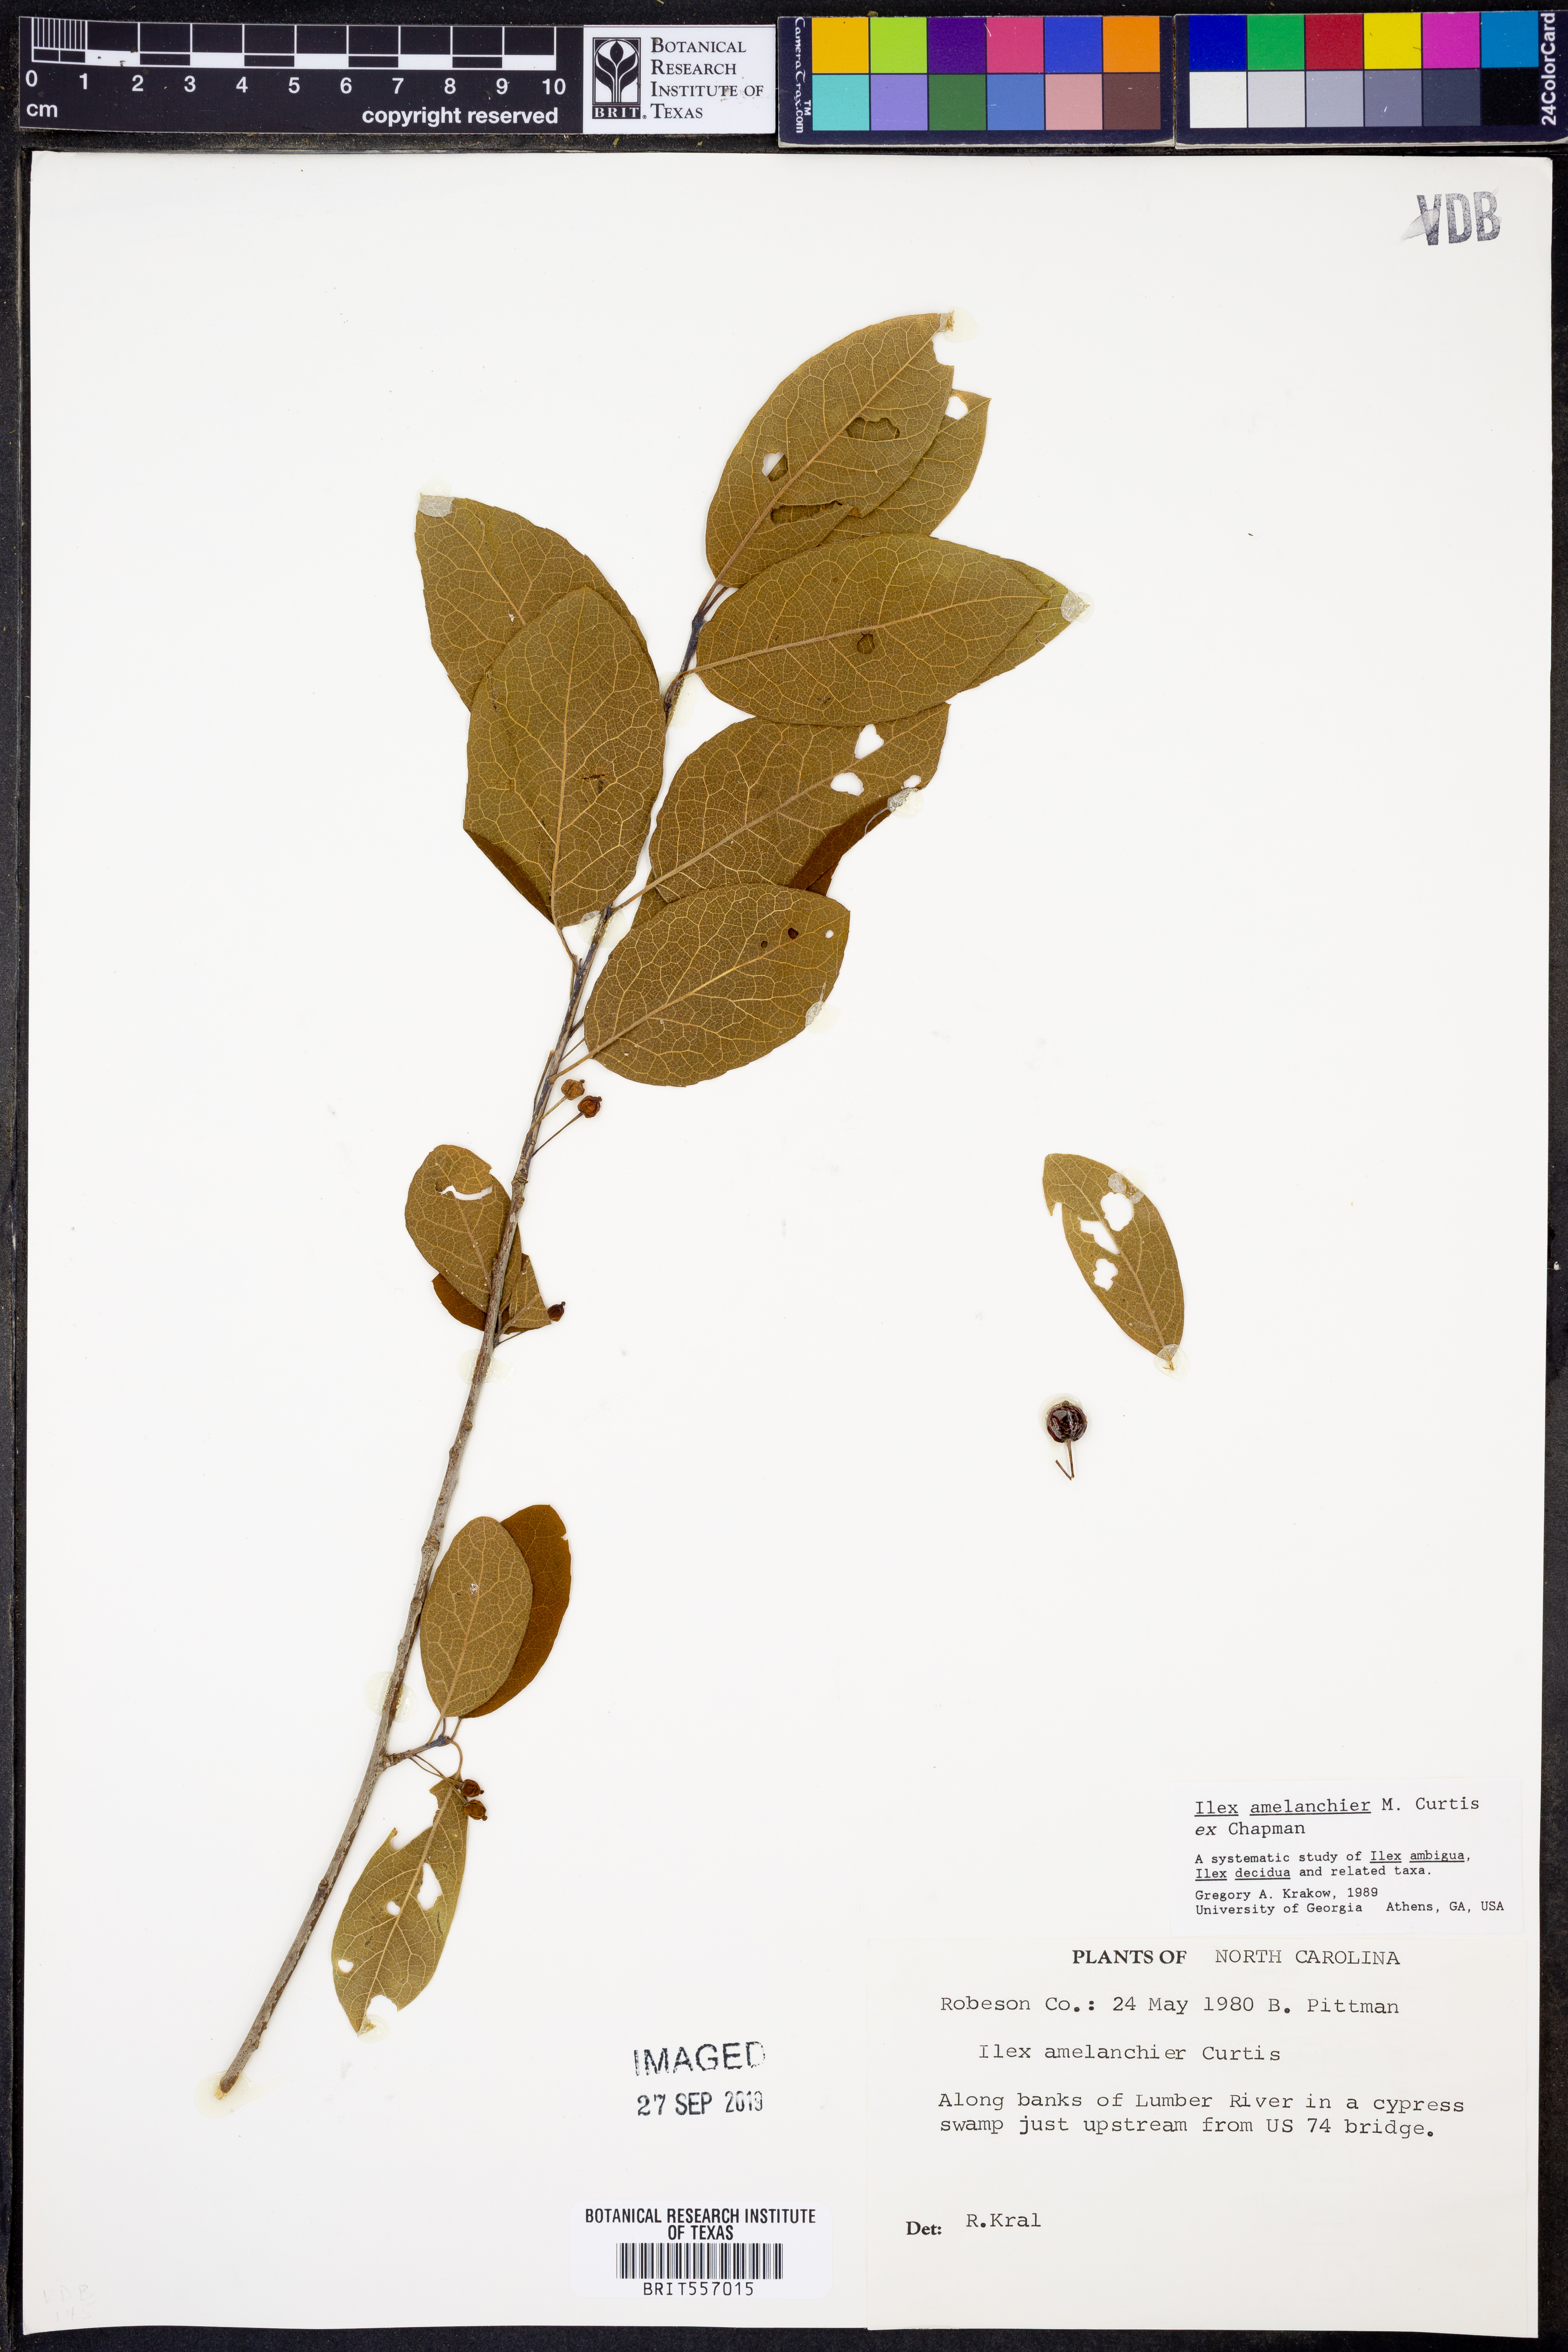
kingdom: Plantae
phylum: Tracheophyta
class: Magnoliopsida
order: Aquifoliales
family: Aquifoliaceae
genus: Ilex
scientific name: Ilex amelanchier
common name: Sarvis holly
